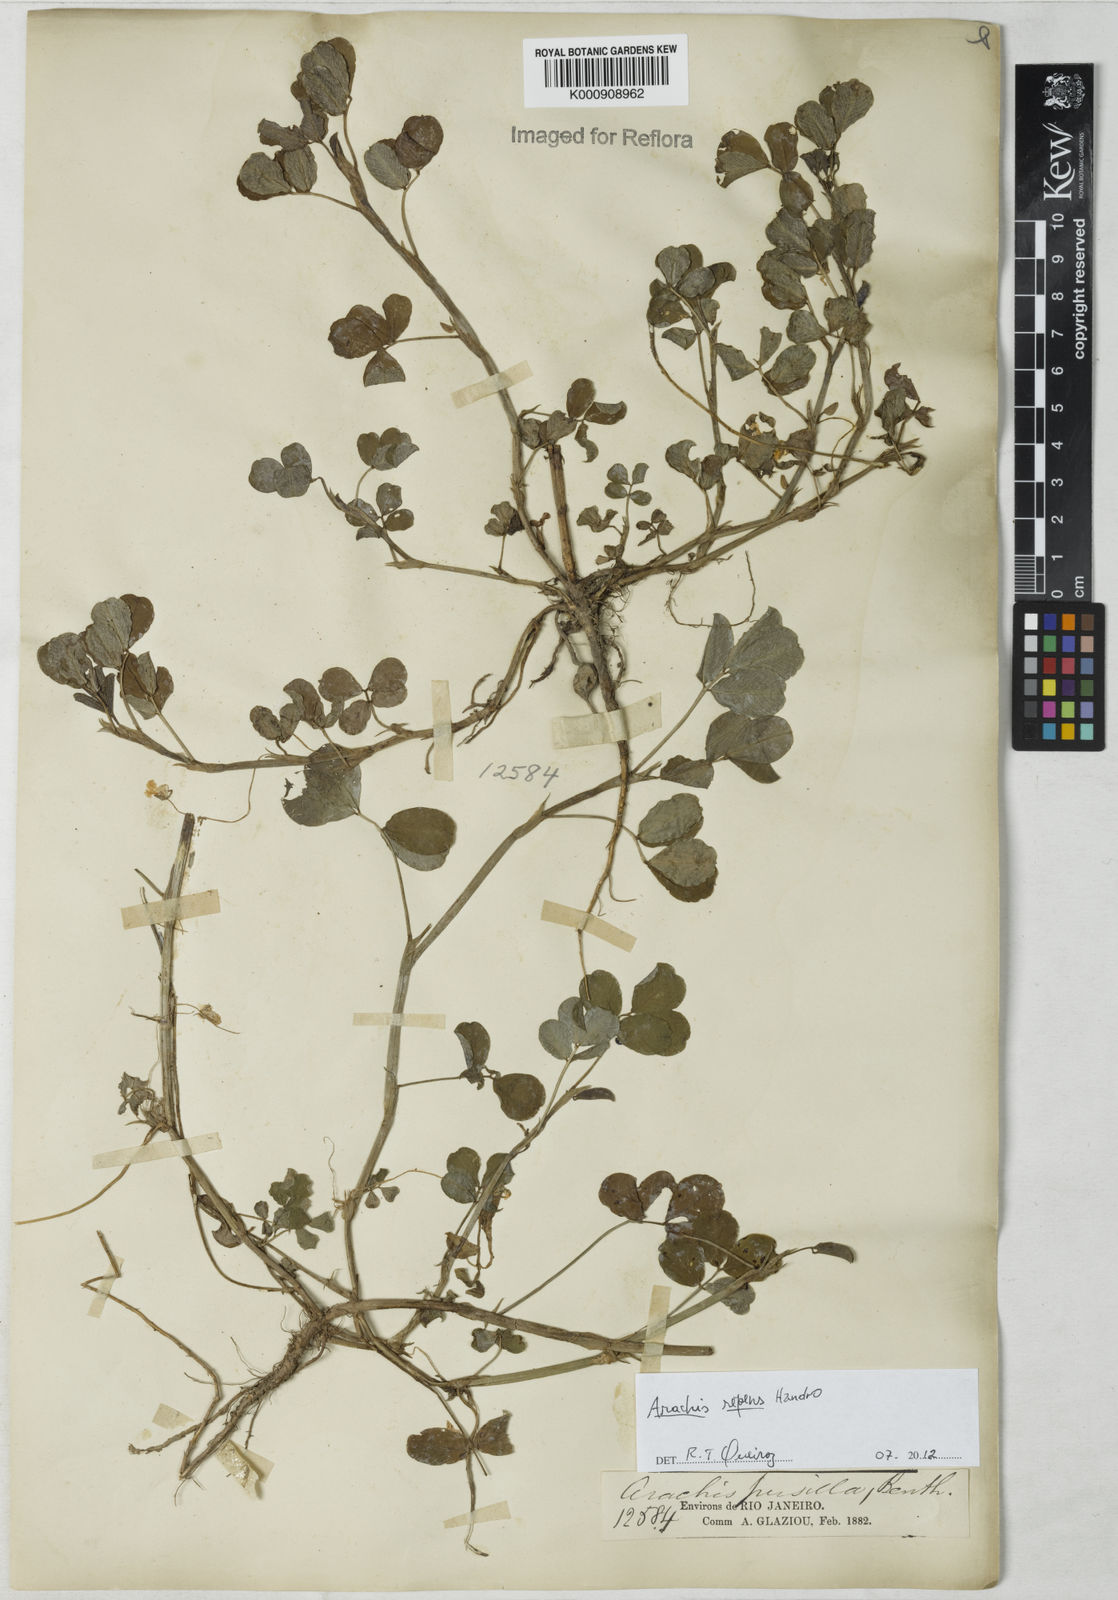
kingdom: Plantae
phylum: Tracheophyta
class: Magnoliopsida
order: Fabales
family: Fabaceae
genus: Arachis
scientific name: Arachis repens
